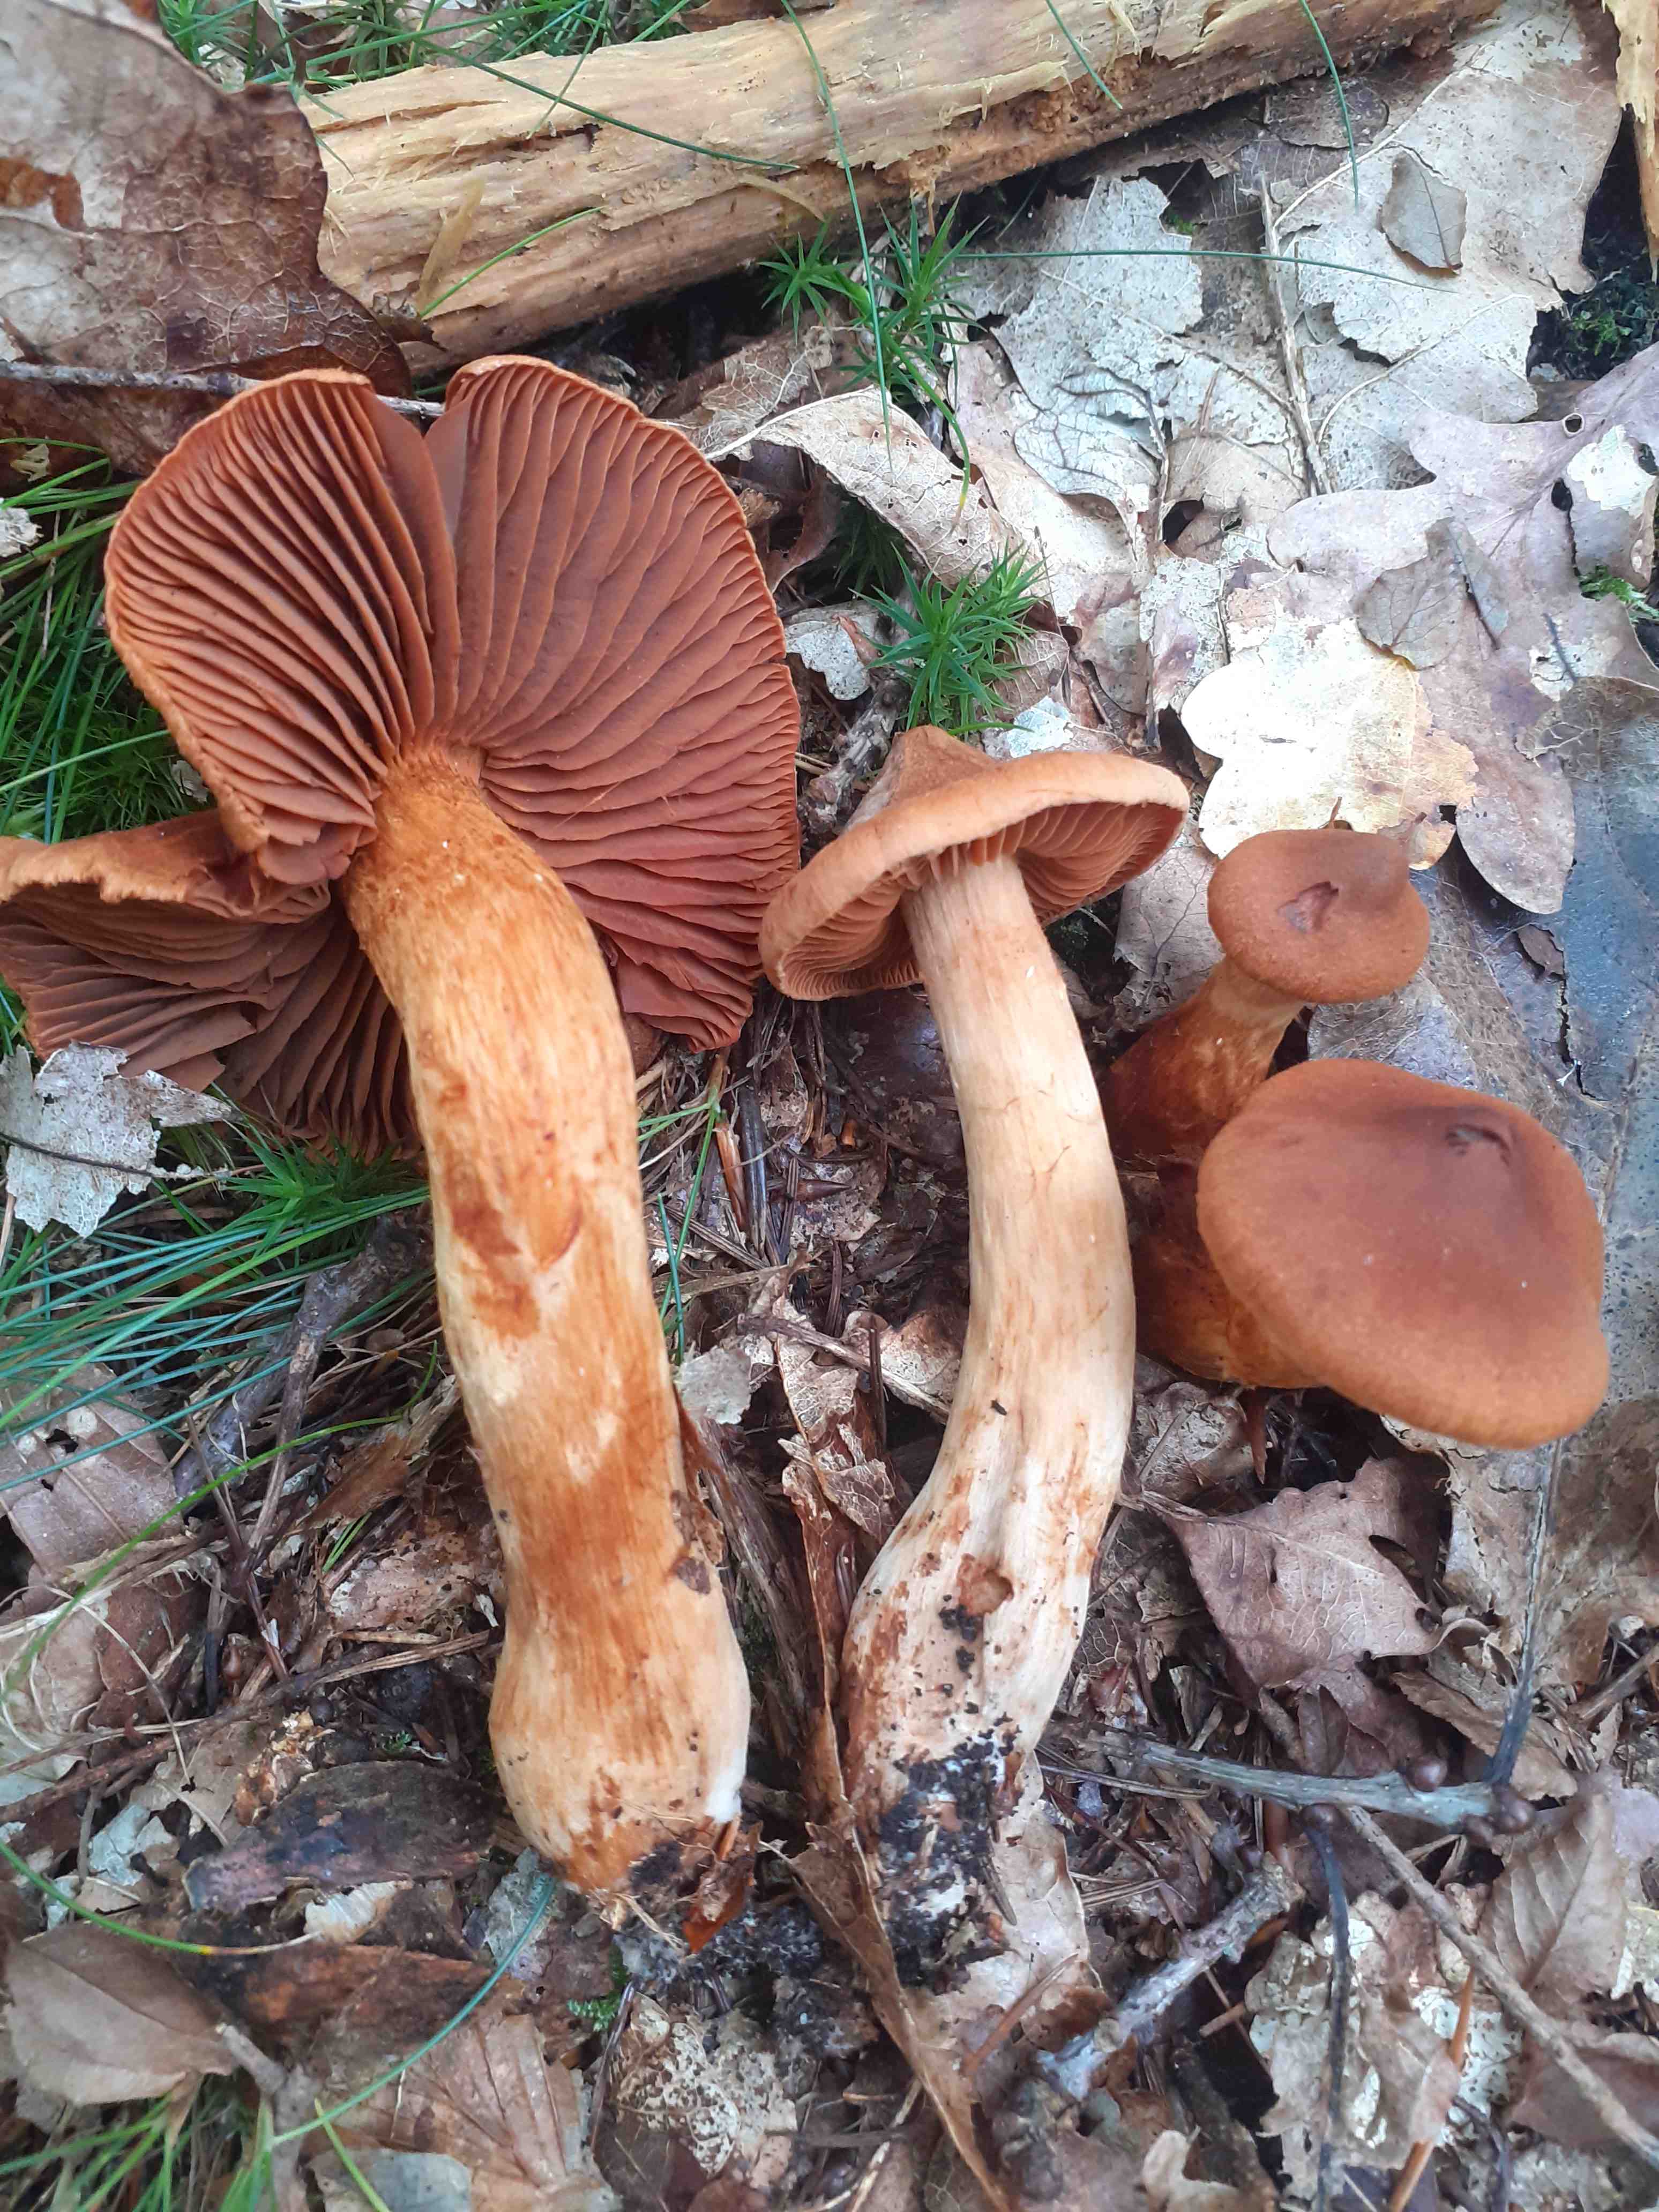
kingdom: Fungi
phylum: Basidiomycota
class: Agaricomycetes
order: Agaricales
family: Cortinariaceae
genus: Cortinarius
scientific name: Cortinarius rubellus
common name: puklet gift-slørhat
